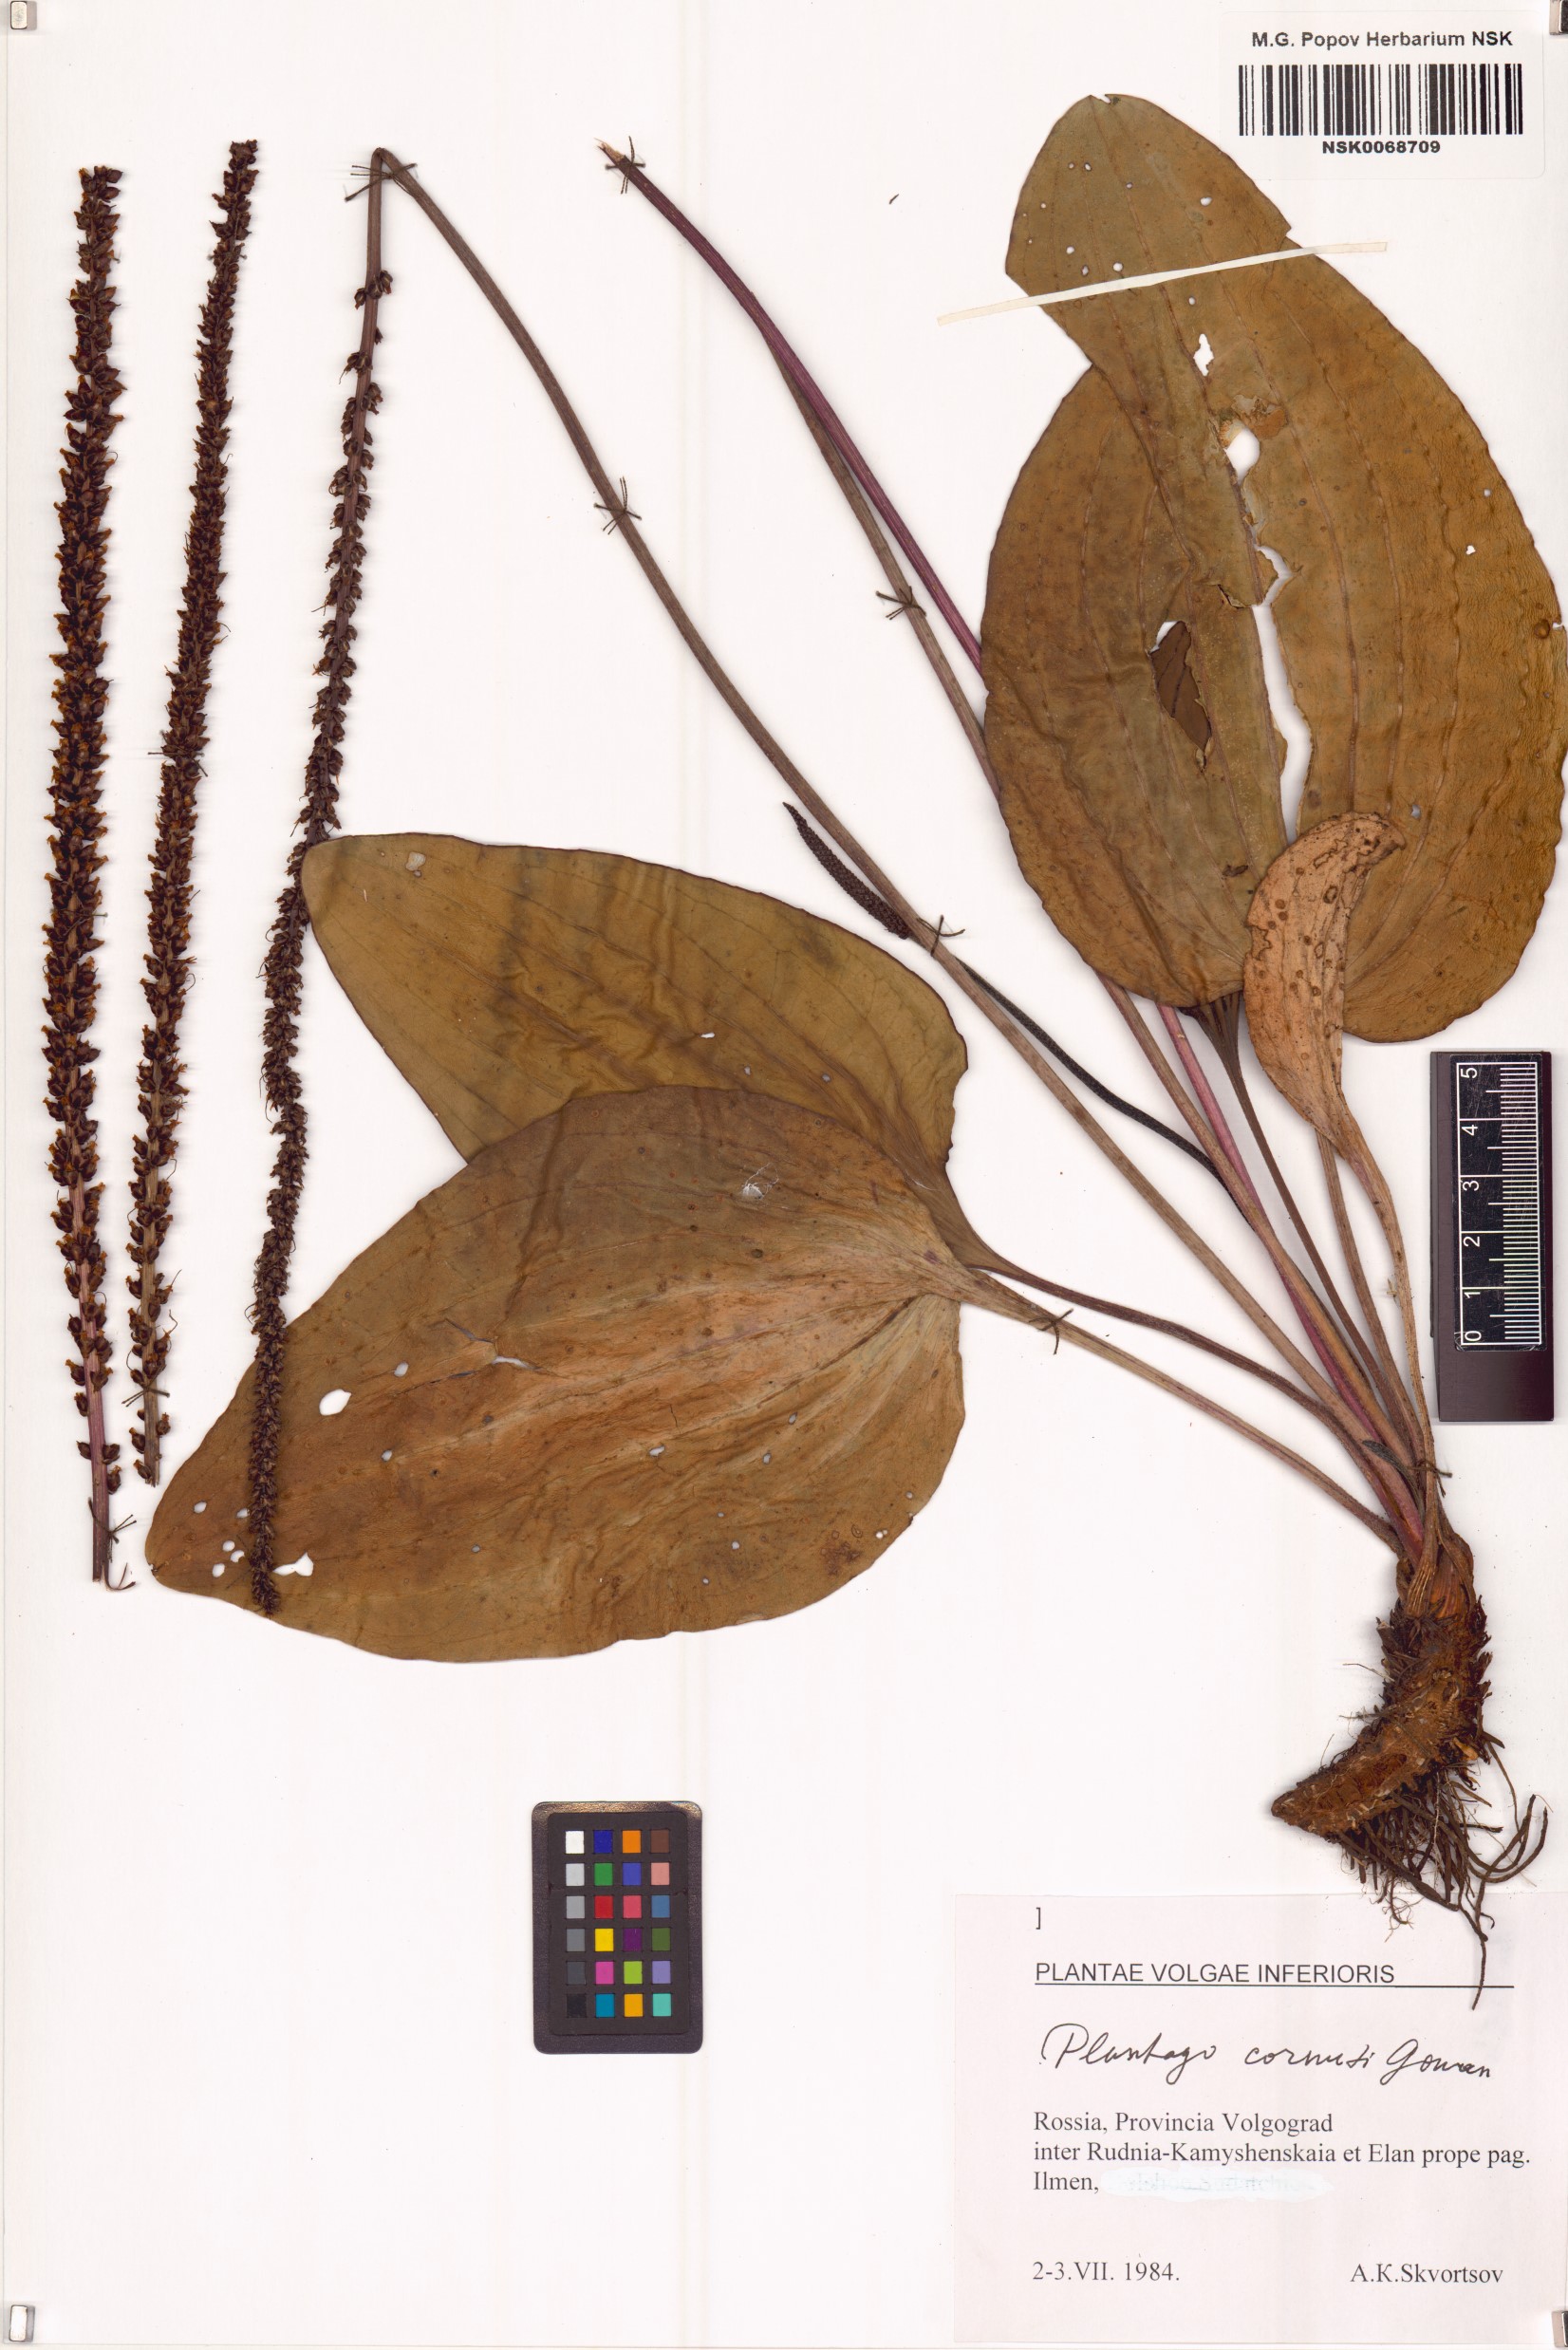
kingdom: Plantae
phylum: Tracheophyta
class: Magnoliopsida
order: Lamiales
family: Plantaginaceae
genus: Plantago
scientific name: Plantago cornuti
